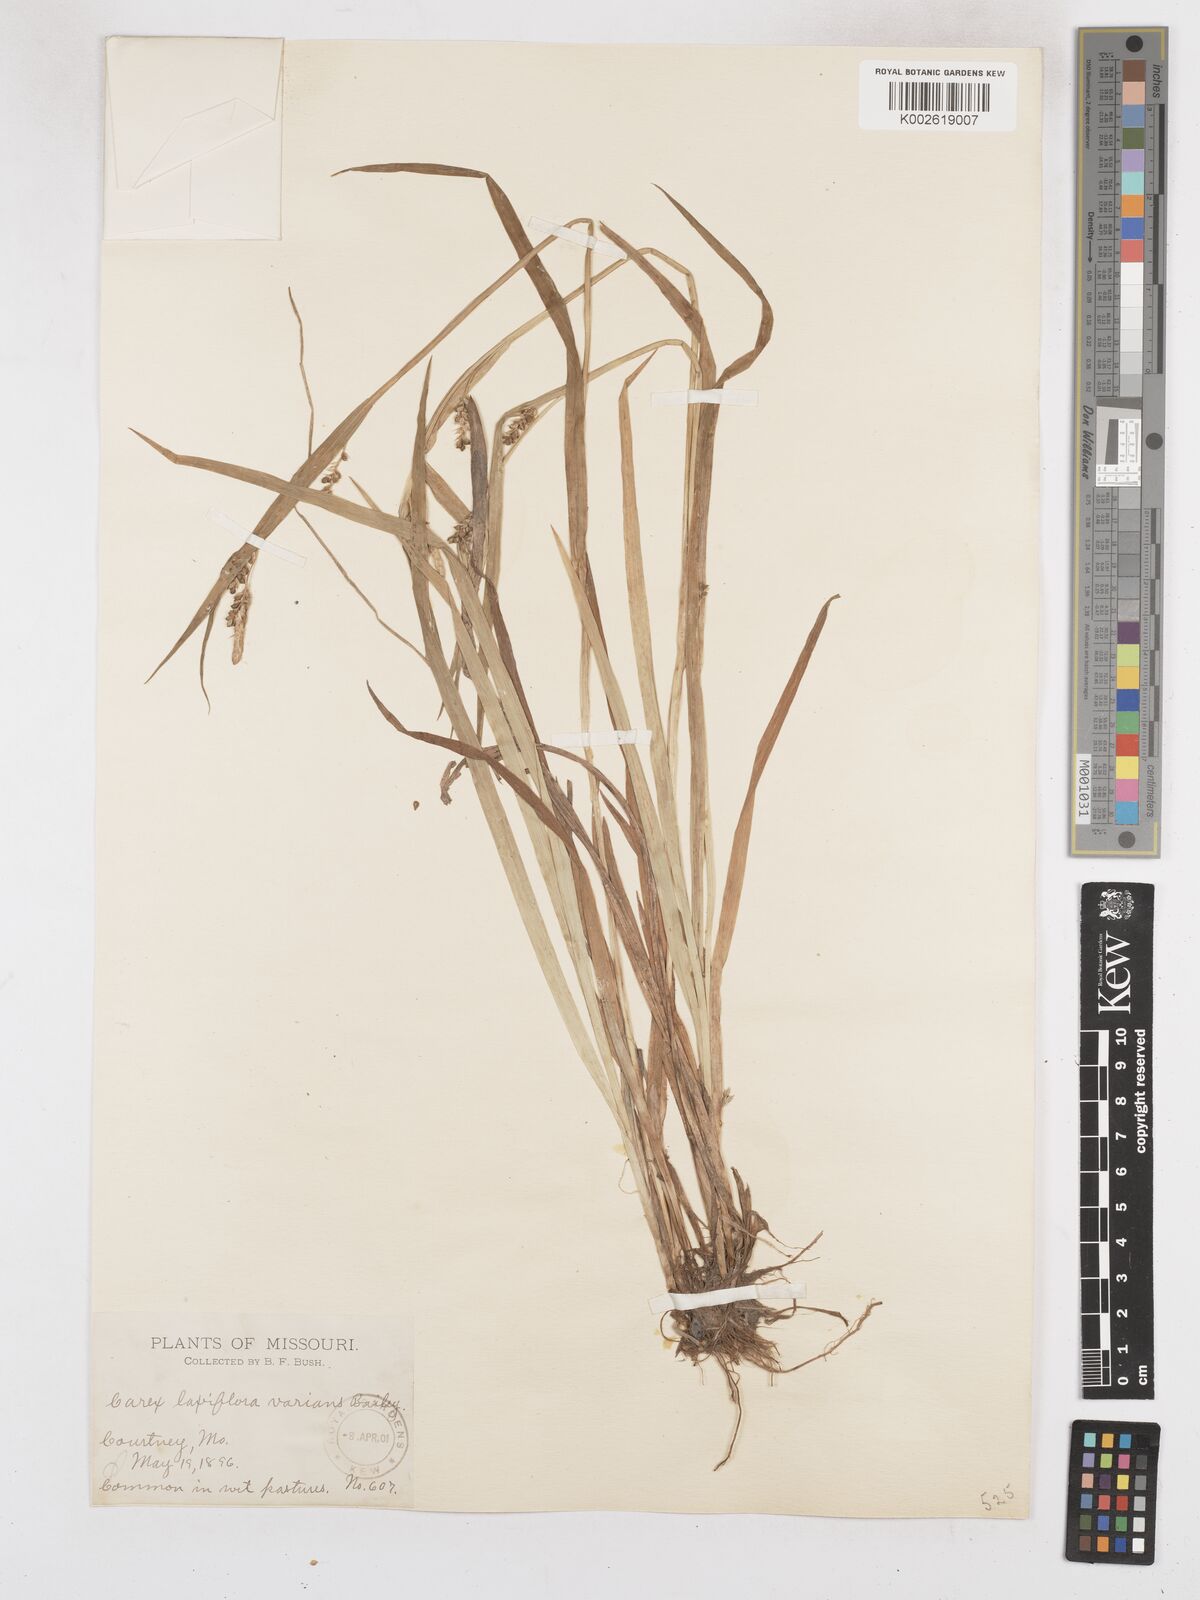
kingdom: Plantae
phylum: Tracheophyta
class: Liliopsida
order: Poales
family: Cyperaceae
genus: Carex
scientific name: Carex leptonervia
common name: Few-nerved wood sedge
